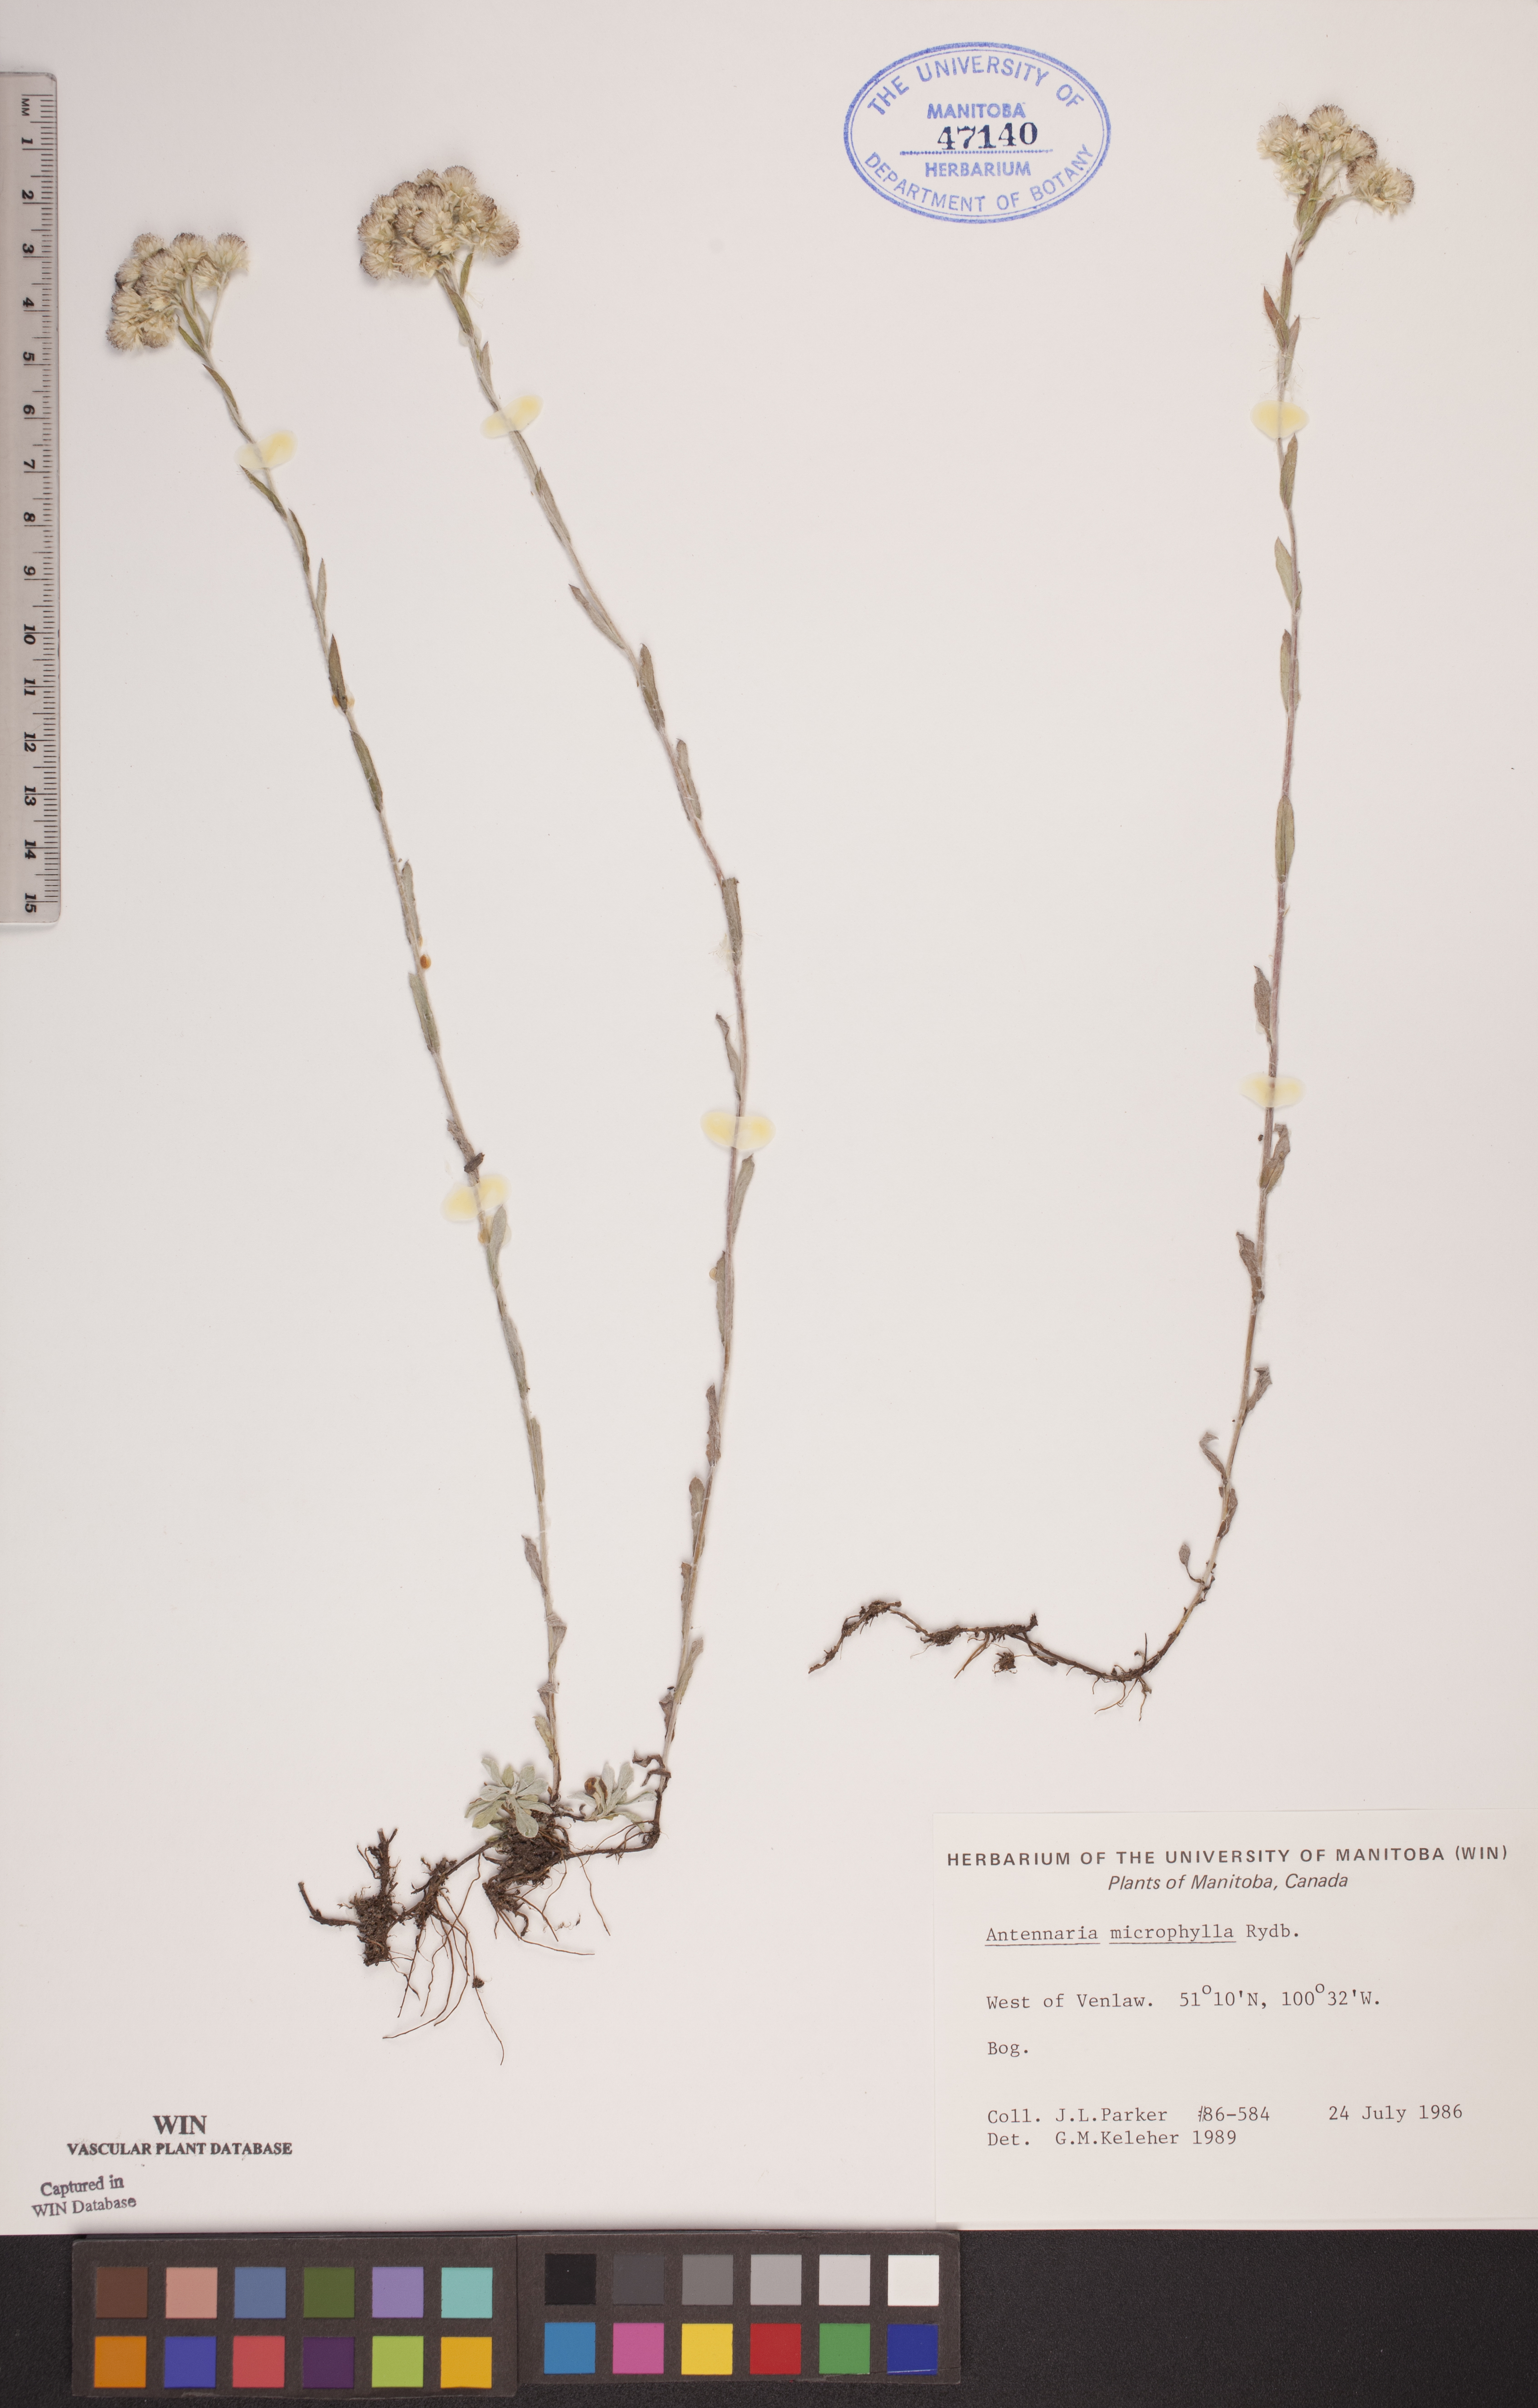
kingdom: Plantae
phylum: Tracheophyta
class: Magnoliopsida
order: Asterales
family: Asteraceae
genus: Antennaria
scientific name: Antennaria microphylla
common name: Littleleaf pussytoes
